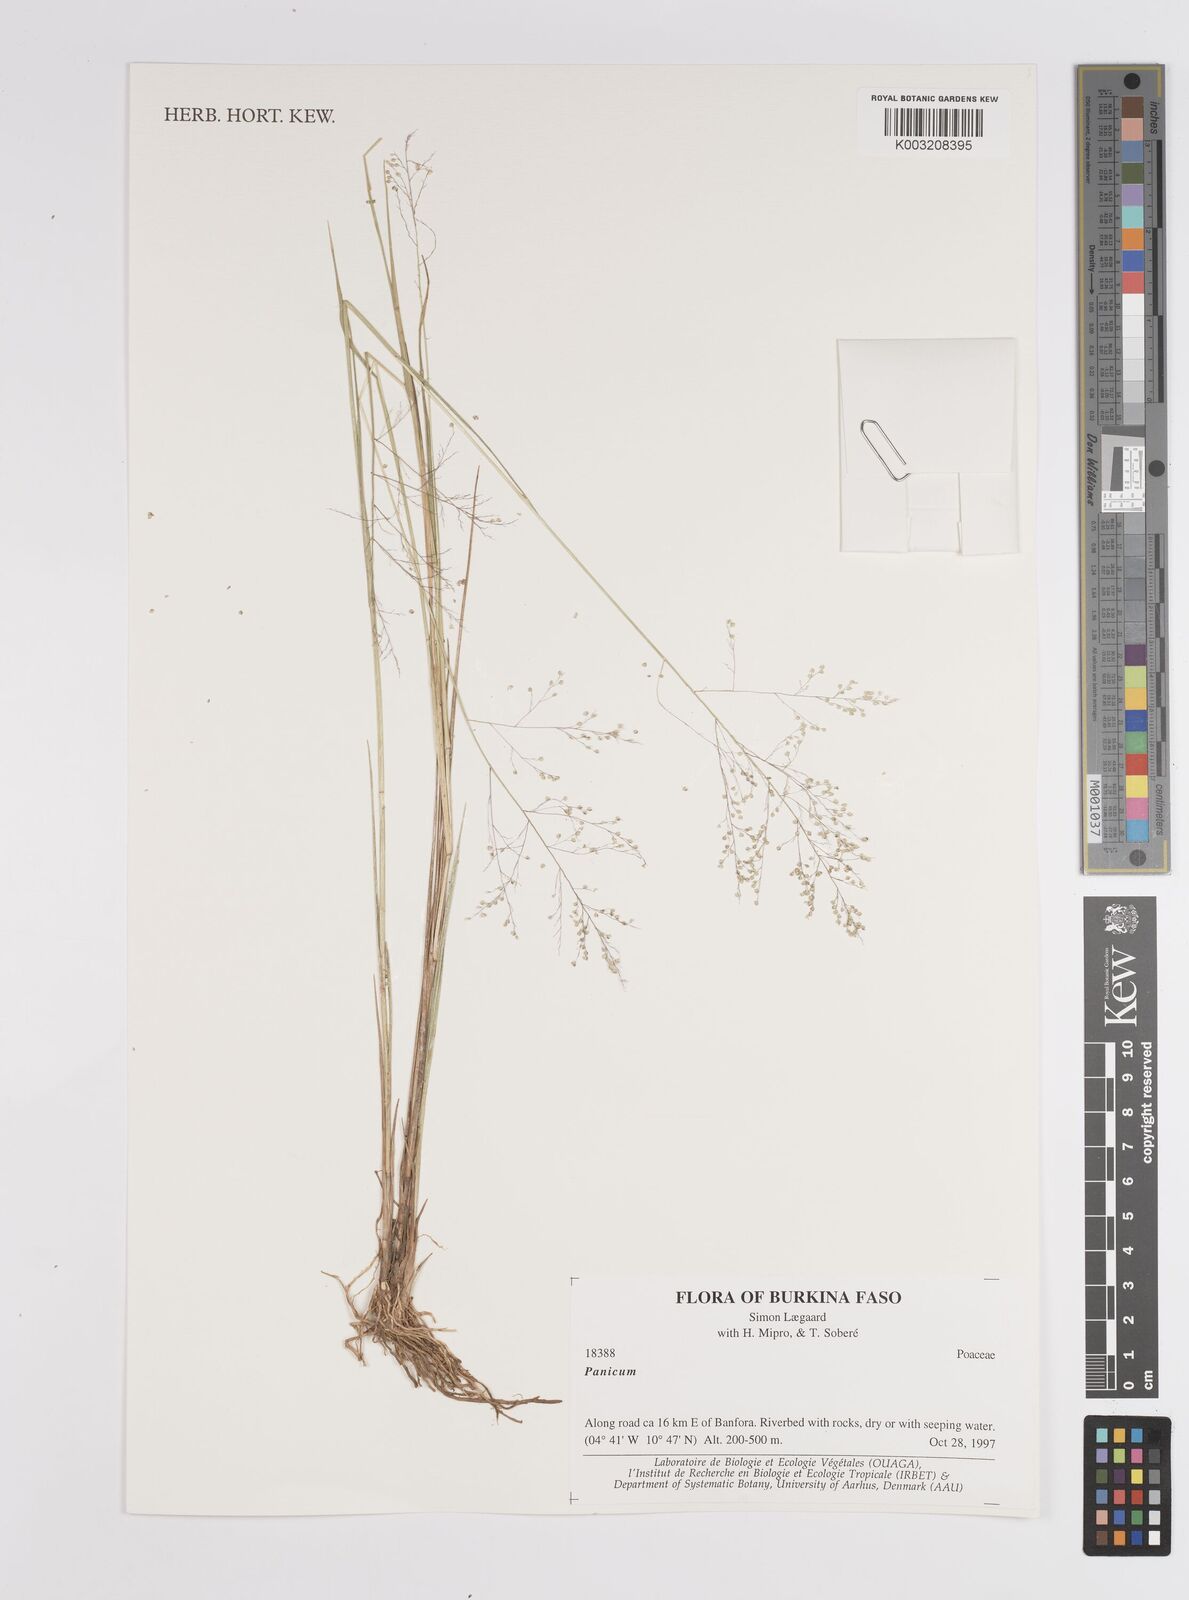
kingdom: Plantae
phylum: Tracheophyta
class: Liliopsida
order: Poales
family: Poaceae
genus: Panicum
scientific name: Panicum
